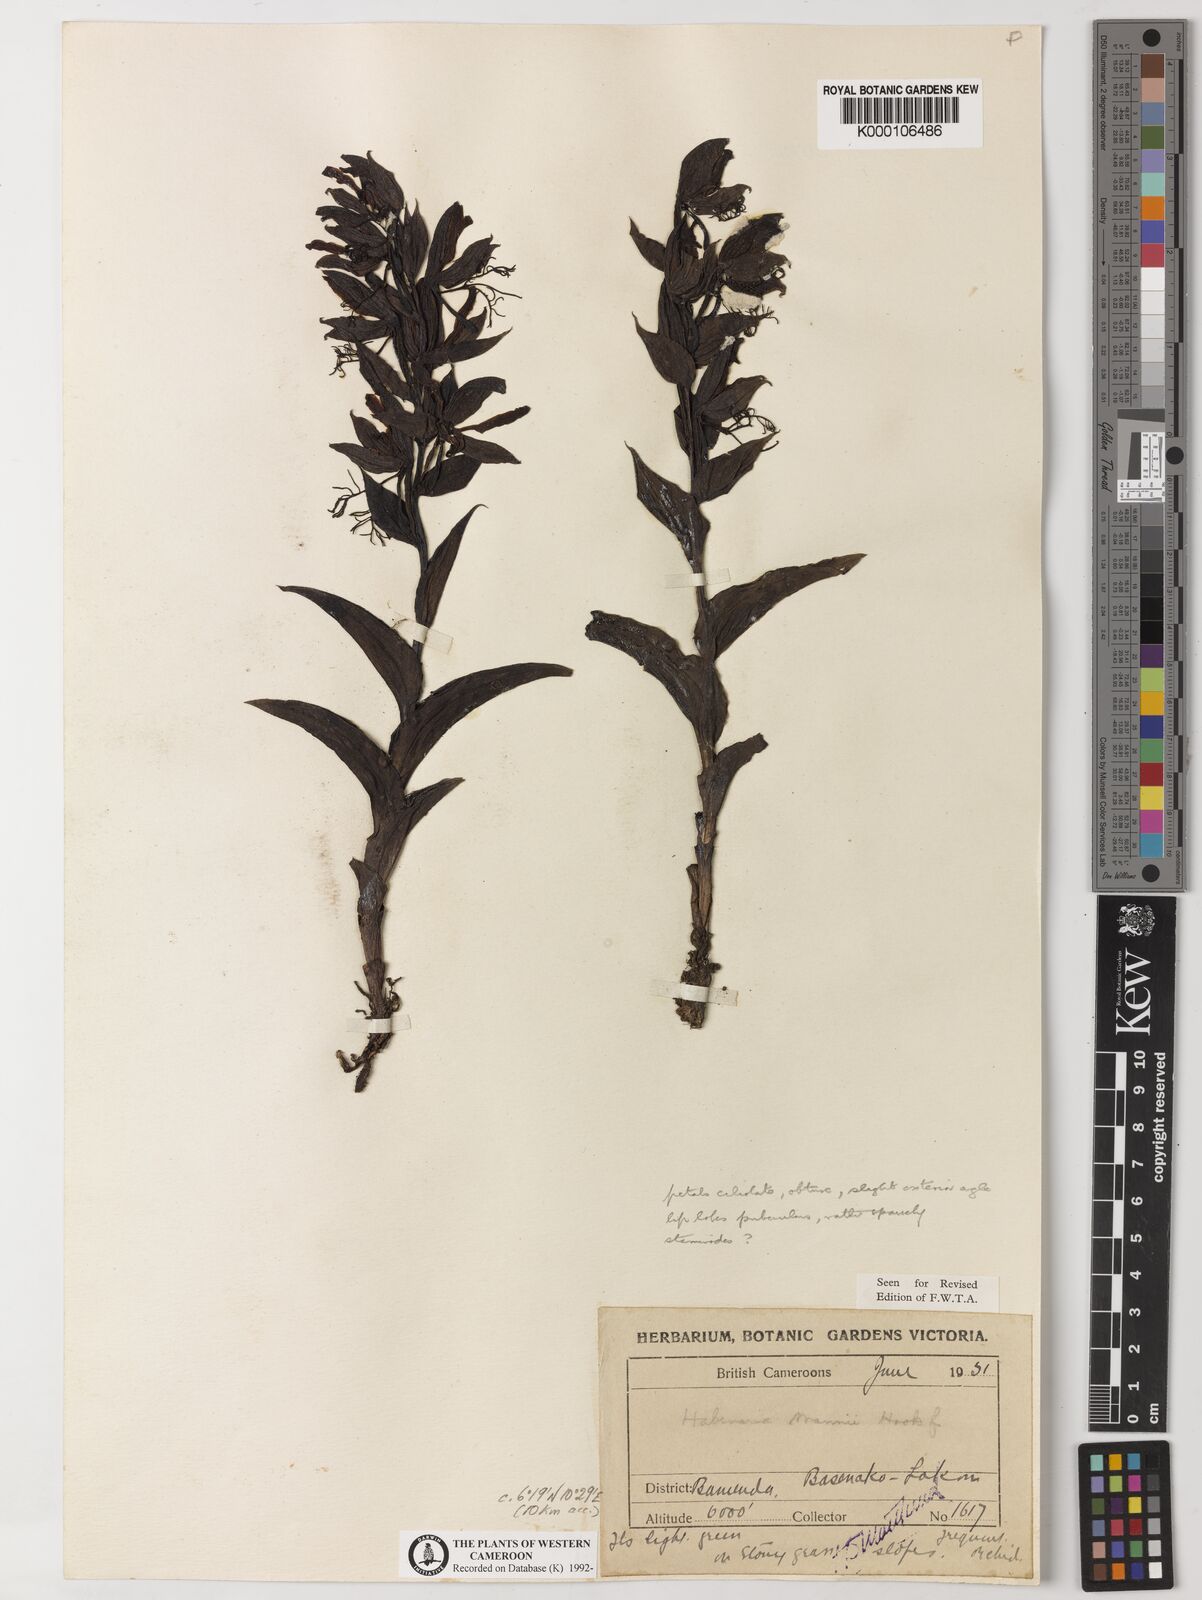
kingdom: Plantae
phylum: Tracheophyta
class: Liliopsida
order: Asparagales
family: Orchidaceae
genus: Habenaria
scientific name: Habenaria mannii
